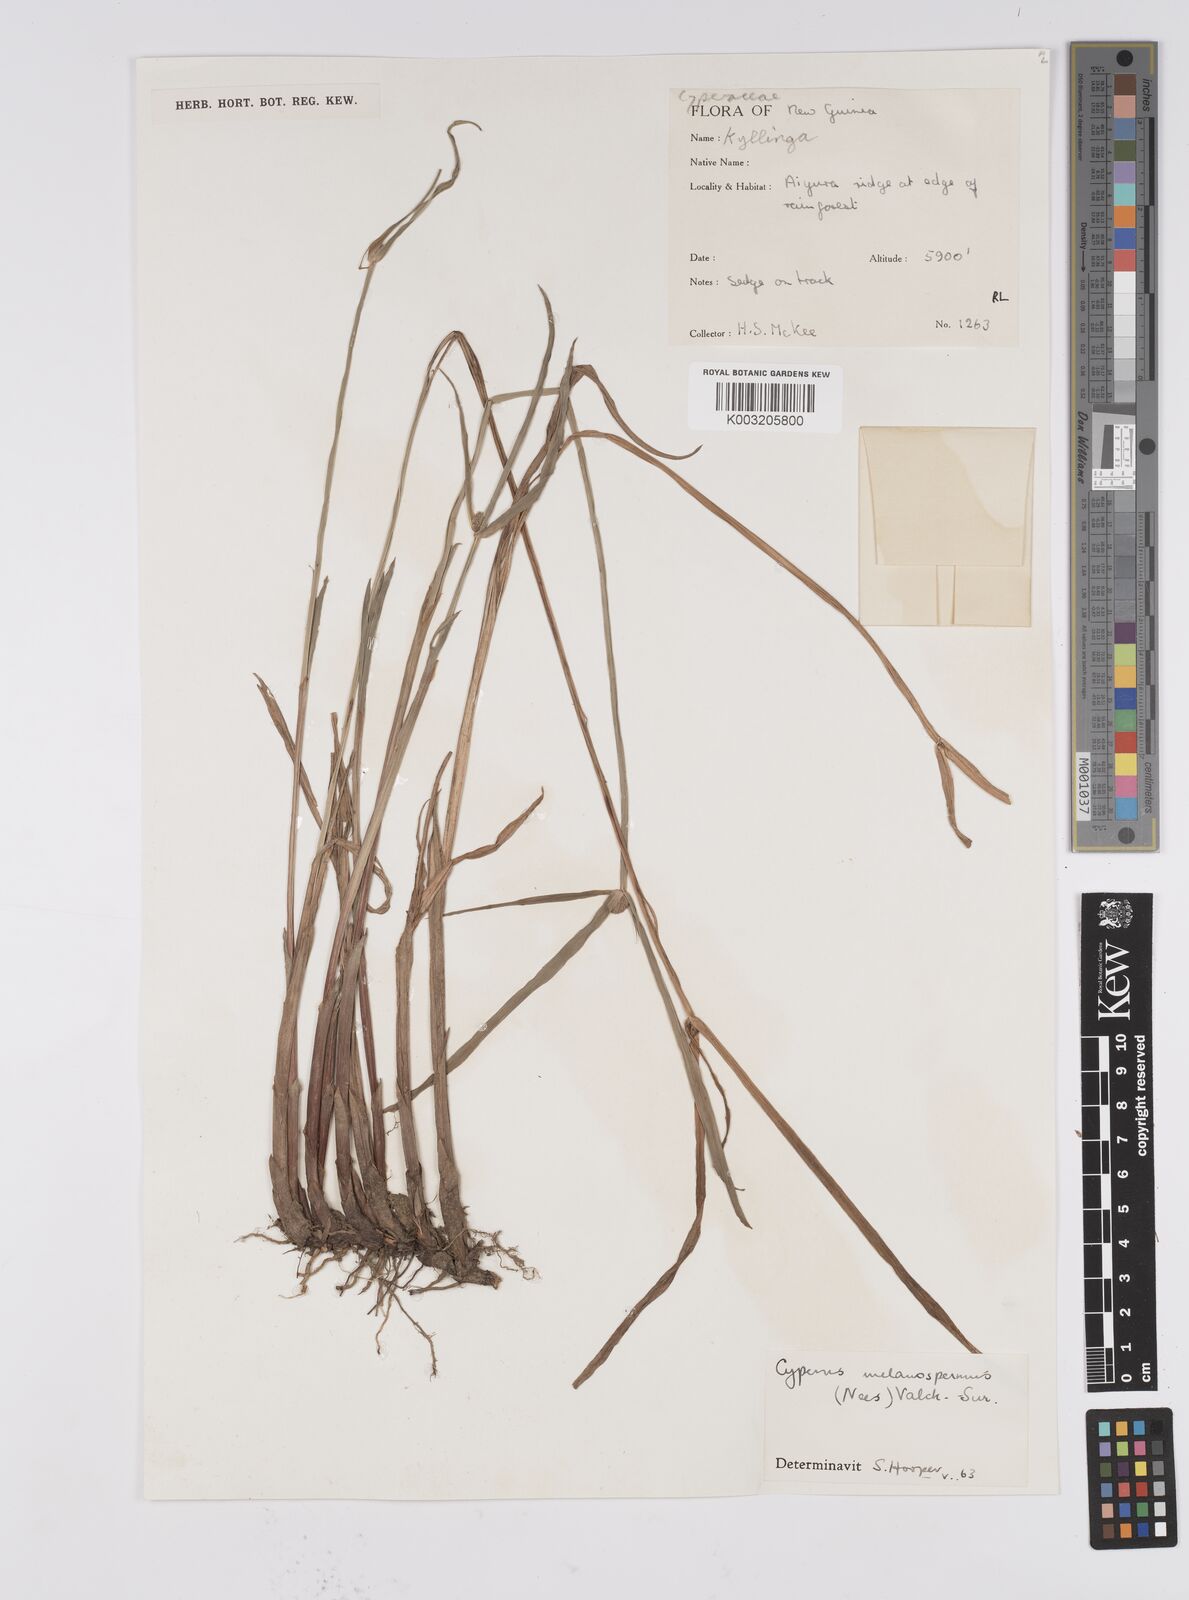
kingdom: Plantae
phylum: Tracheophyta
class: Liliopsida
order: Poales
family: Cyperaceae
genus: Cyperus
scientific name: Cyperus melanospermus
